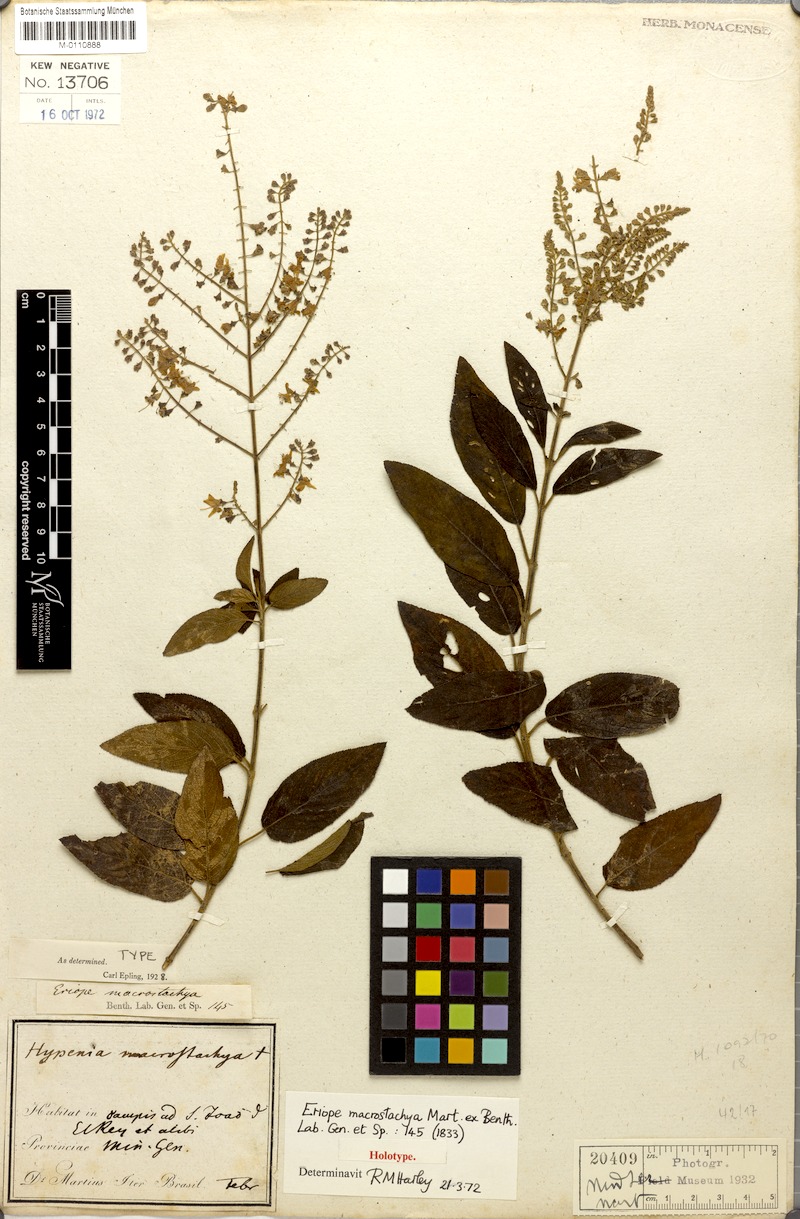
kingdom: Plantae
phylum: Tracheophyta
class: Magnoliopsida
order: Lamiales
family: Lamiaceae
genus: Eriope
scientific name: Eriope macrostachya
